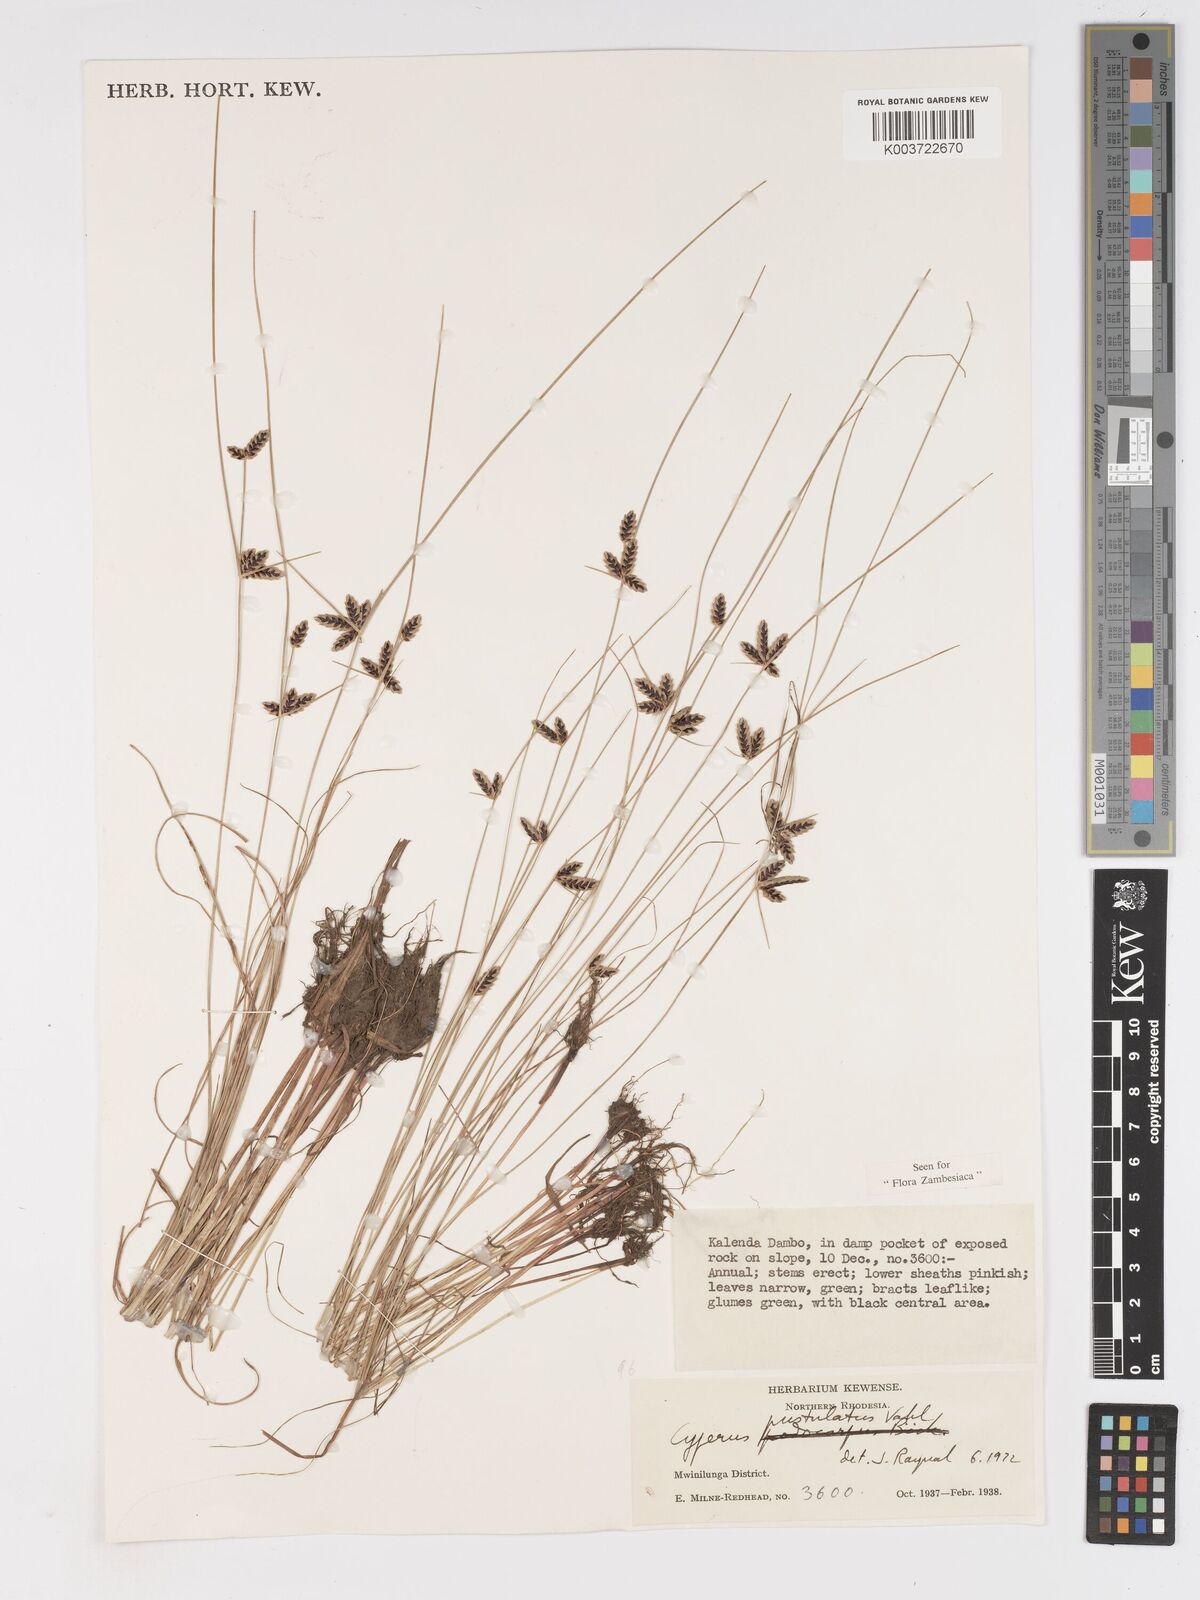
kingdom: Plantae
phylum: Tracheophyta
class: Liliopsida
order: Poales
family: Cyperaceae
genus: Cyperus
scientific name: Cyperus pustulatus
